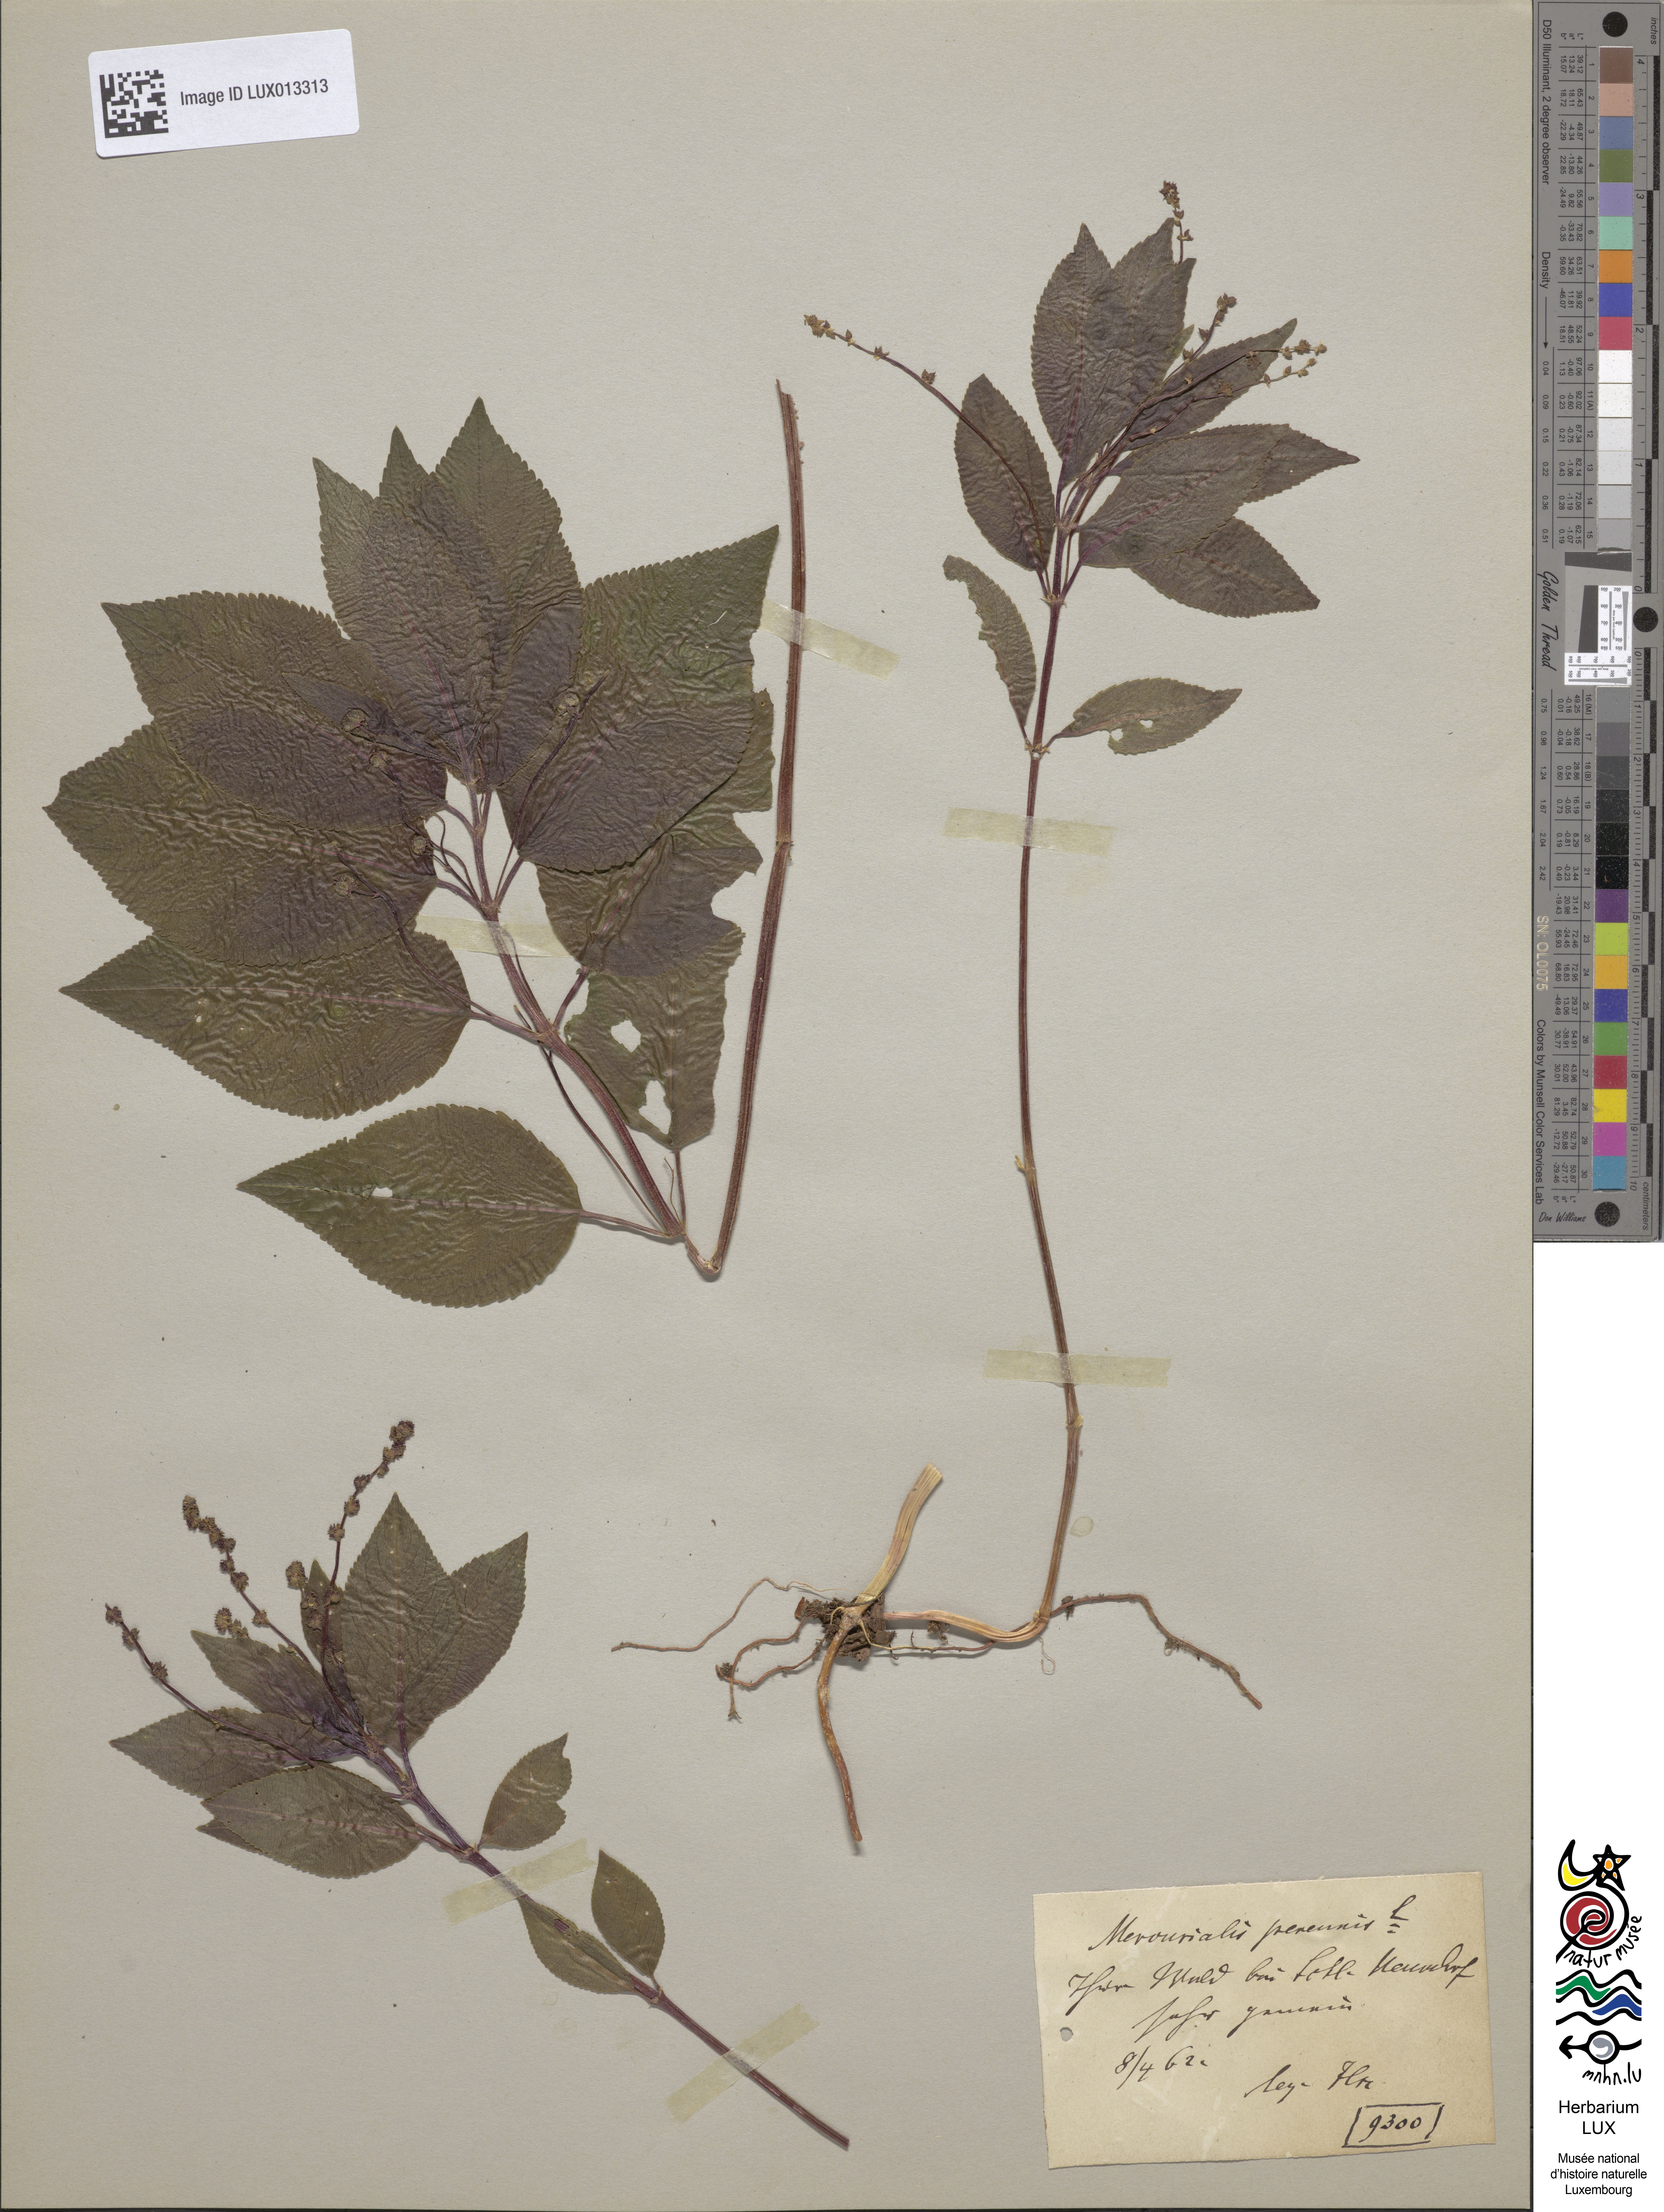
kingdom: Plantae
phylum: Tracheophyta
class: Magnoliopsida
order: Malpighiales
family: Euphorbiaceae
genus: Mercurialis
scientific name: Mercurialis perennis
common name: Dog mercury
